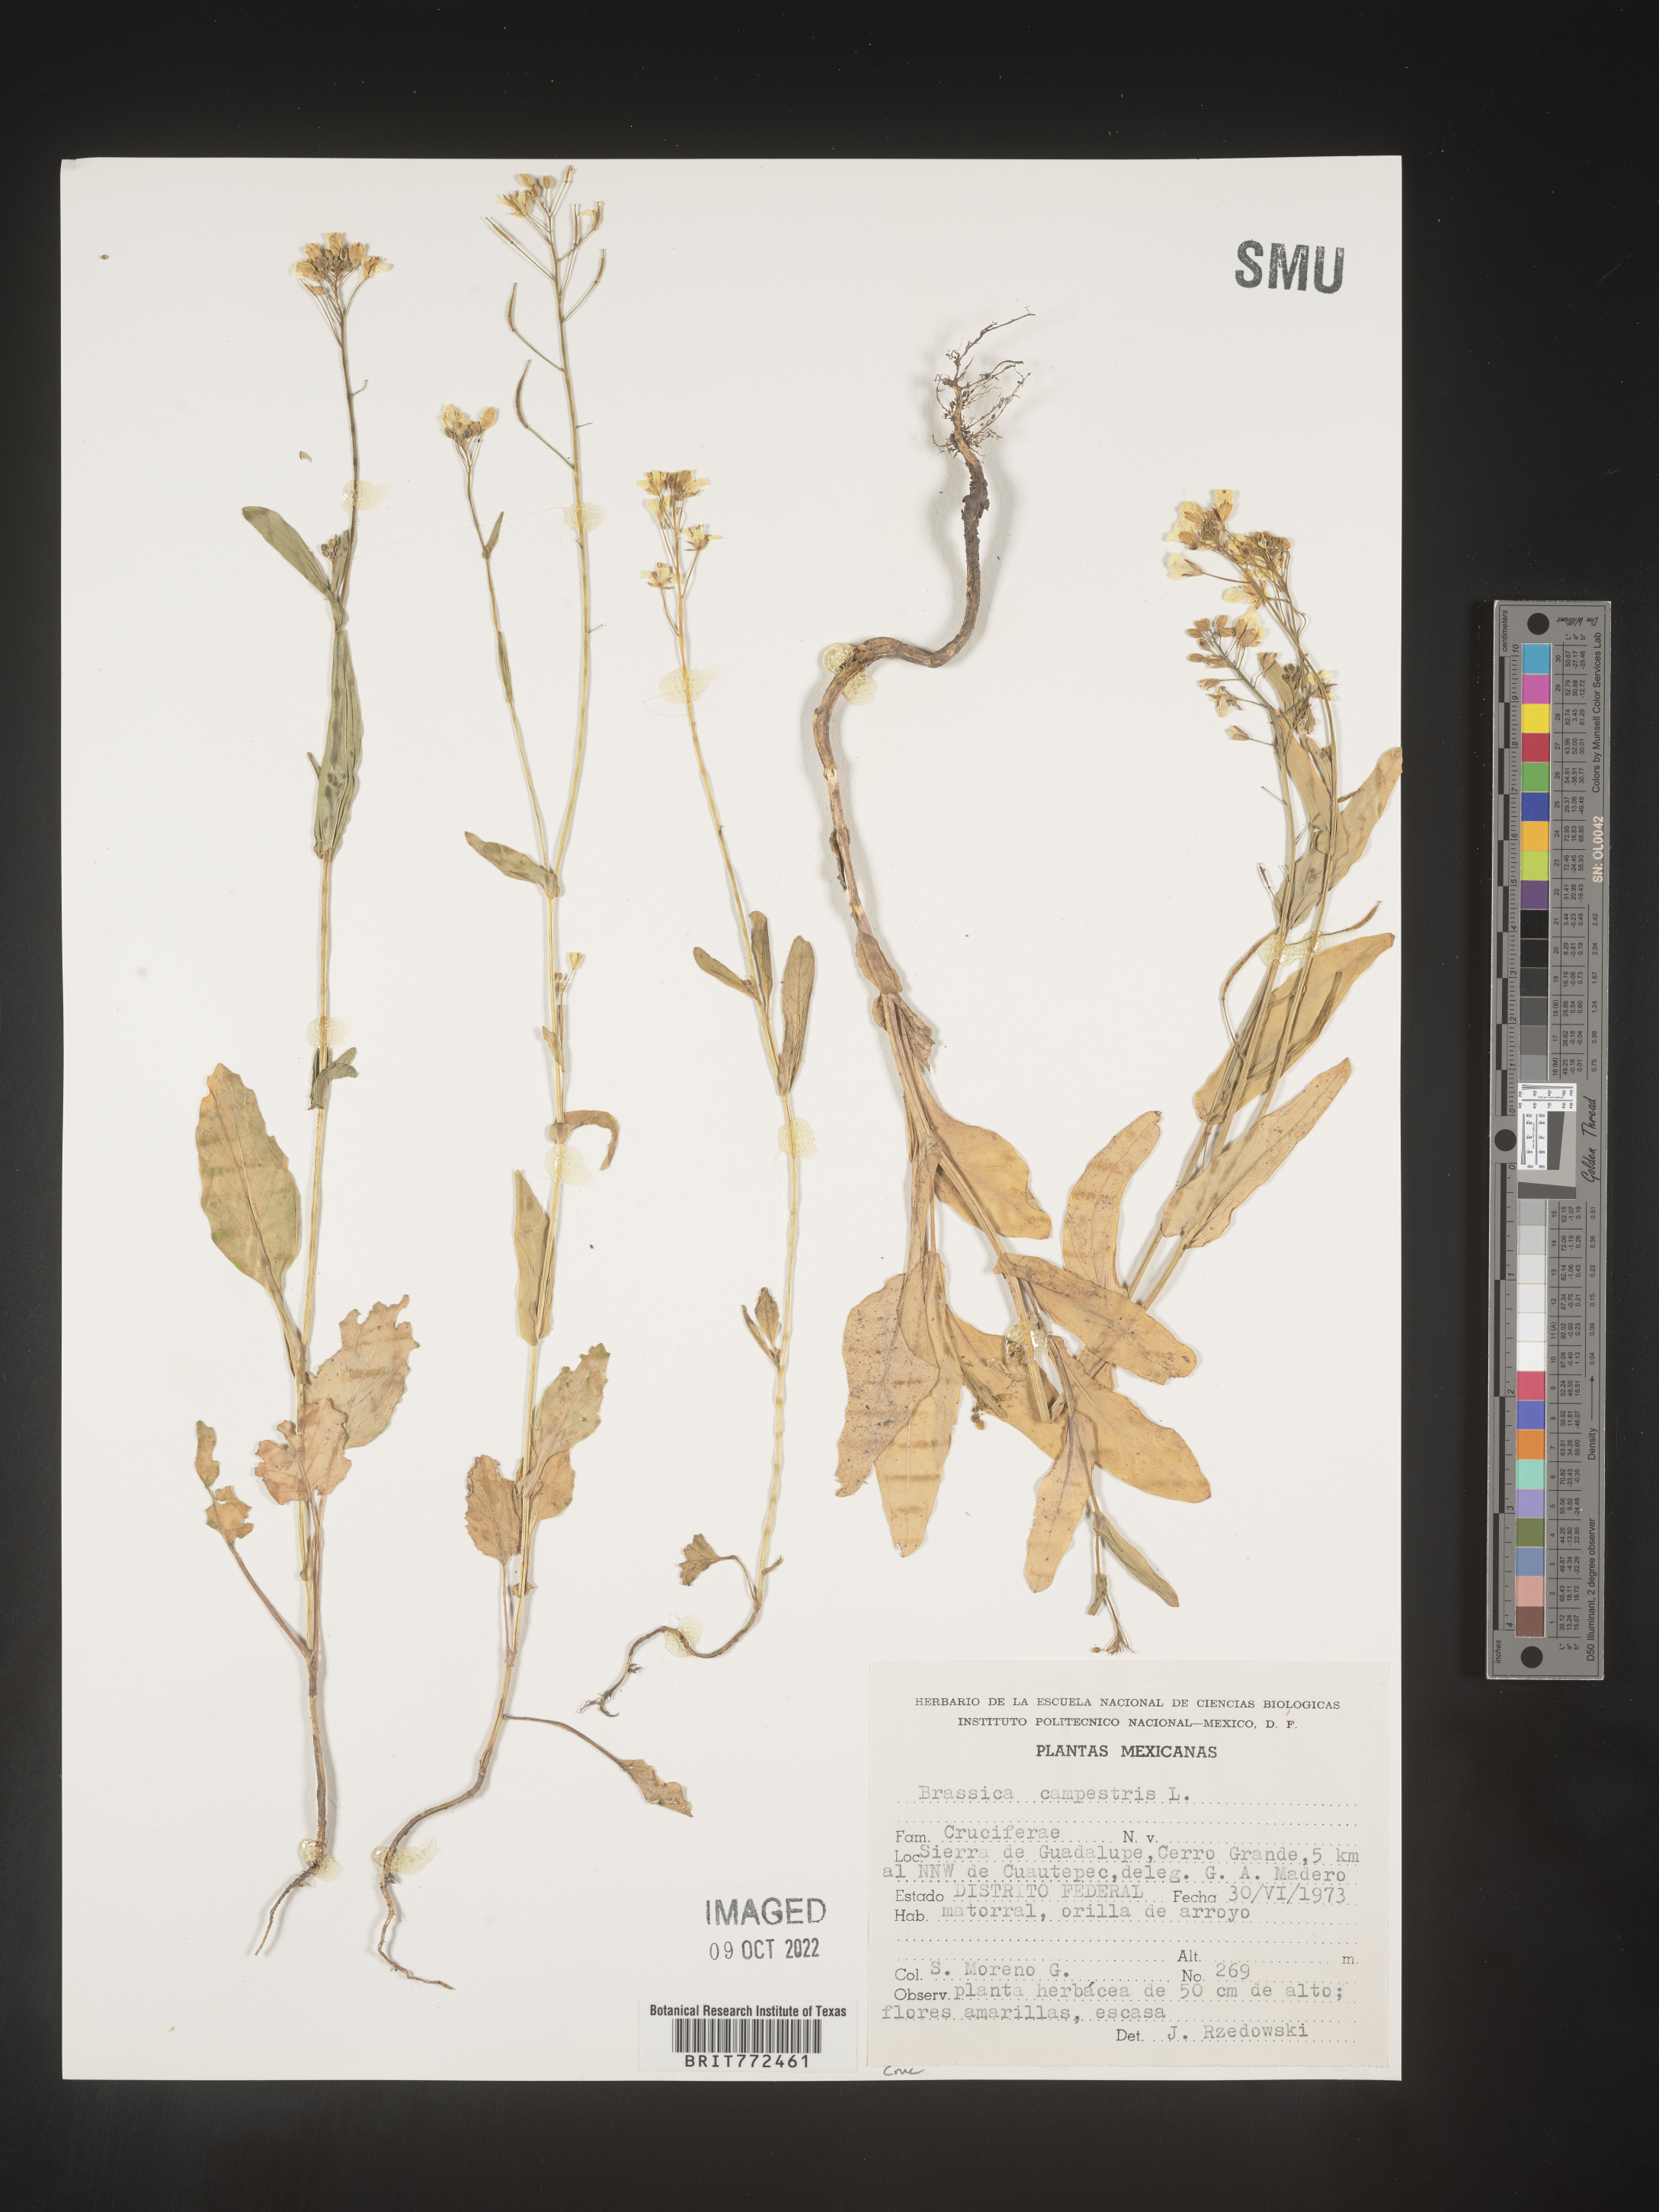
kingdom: Plantae
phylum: Tracheophyta
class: Magnoliopsida
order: Brassicales
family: Brassicaceae
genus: Brassica
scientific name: Brassica
